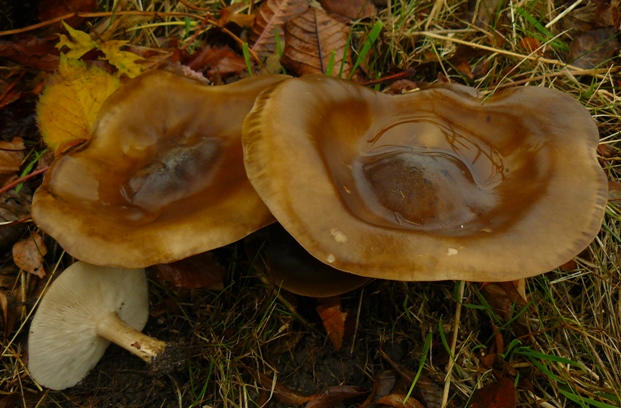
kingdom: Fungi
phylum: Basidiomycota
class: Agaricomycetes
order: Agaricales
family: Tricholomataceae
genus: Melanoleuca
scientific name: Melanoleuca
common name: munkehat
